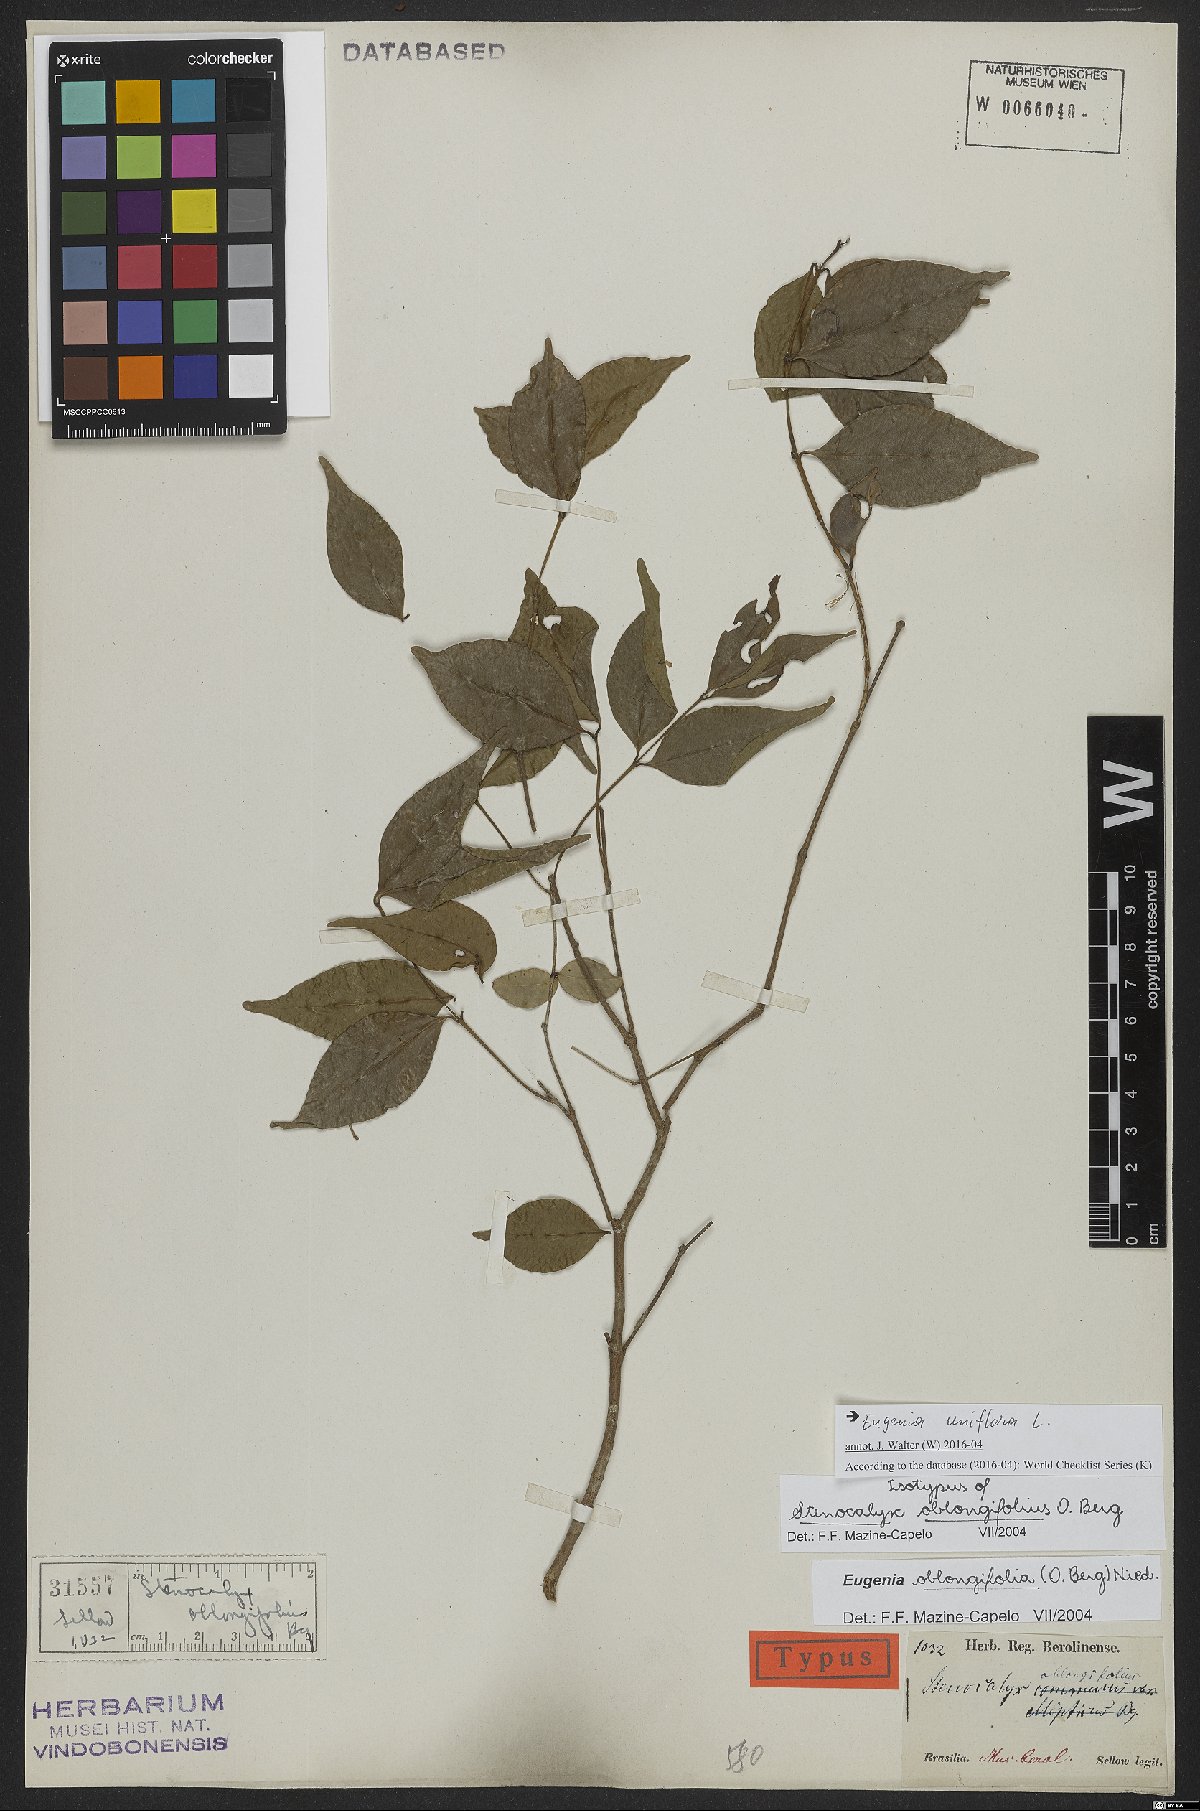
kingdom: Plantae
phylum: Tracheophyta
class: Magnoliopsida
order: Myrtales
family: Myrtaceae
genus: Eugenia
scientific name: Eugenia uniflora
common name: Surinam cherry
